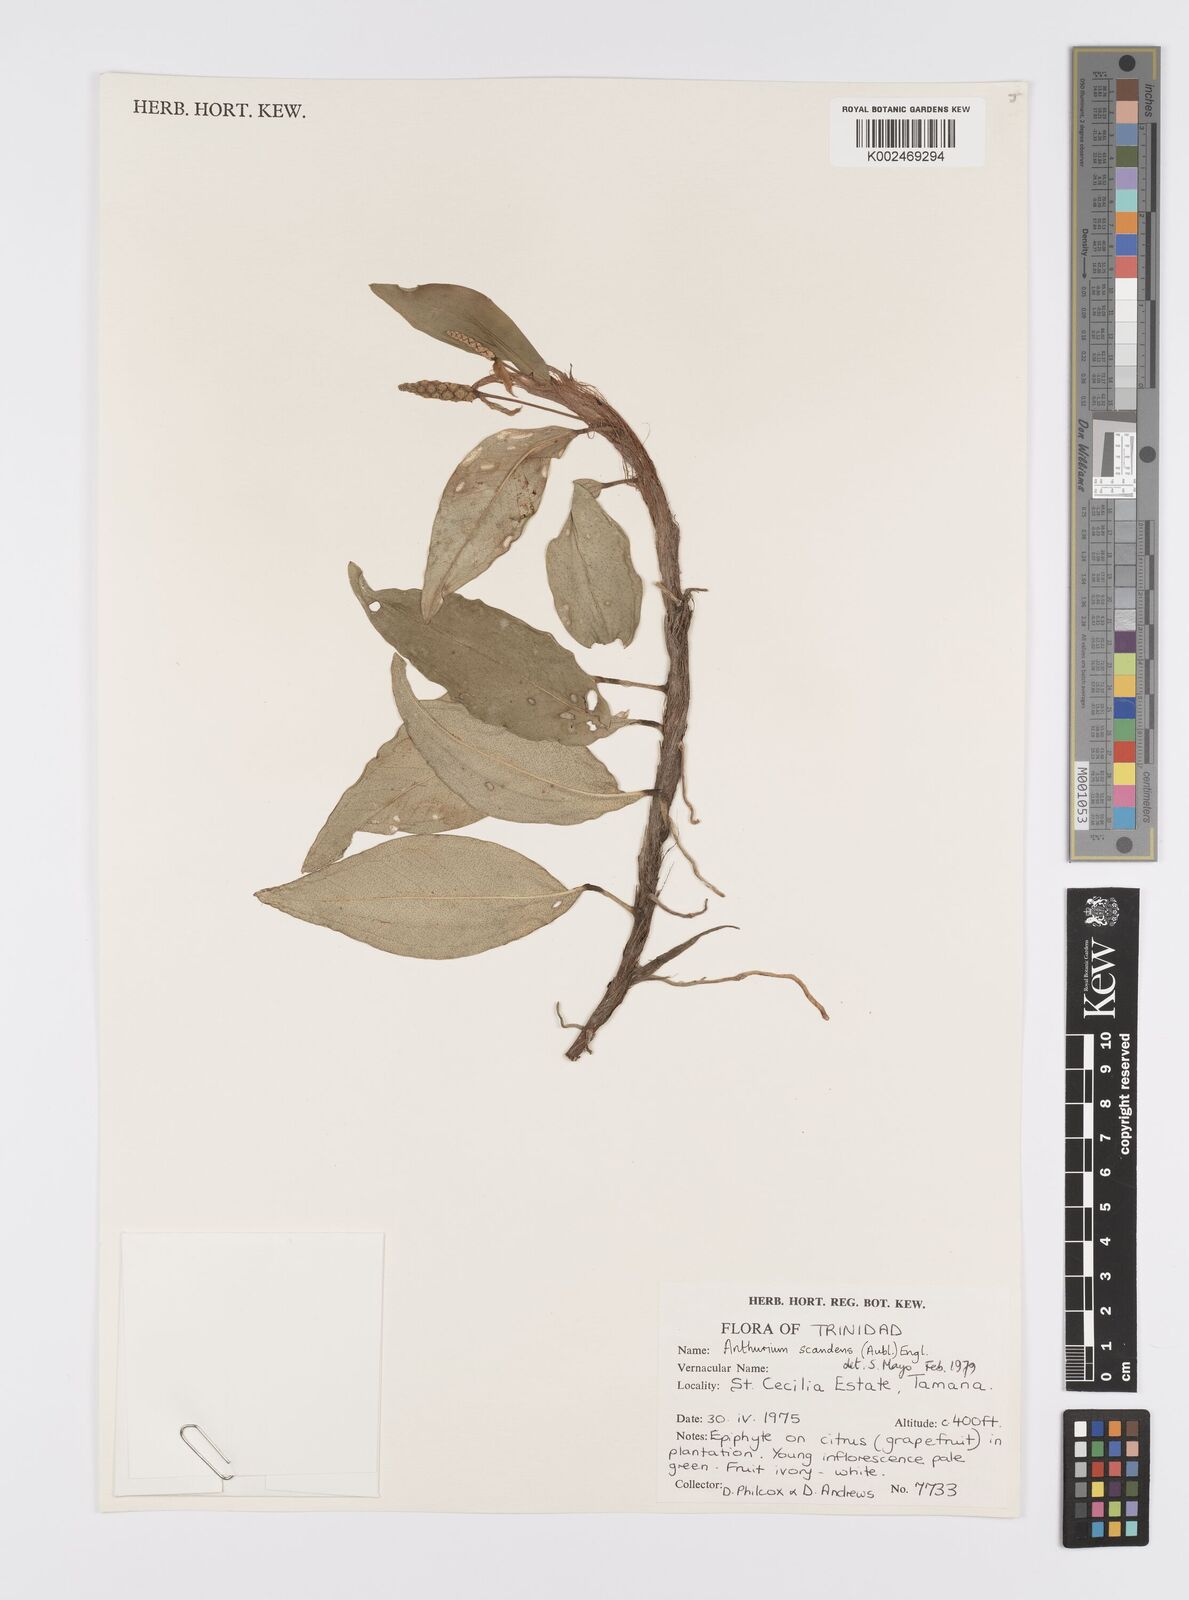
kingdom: Plantae
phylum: Tracheophyta
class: Liliopsida
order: Alismatales
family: Araceae
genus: Anthurium
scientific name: Anthurium scandens
